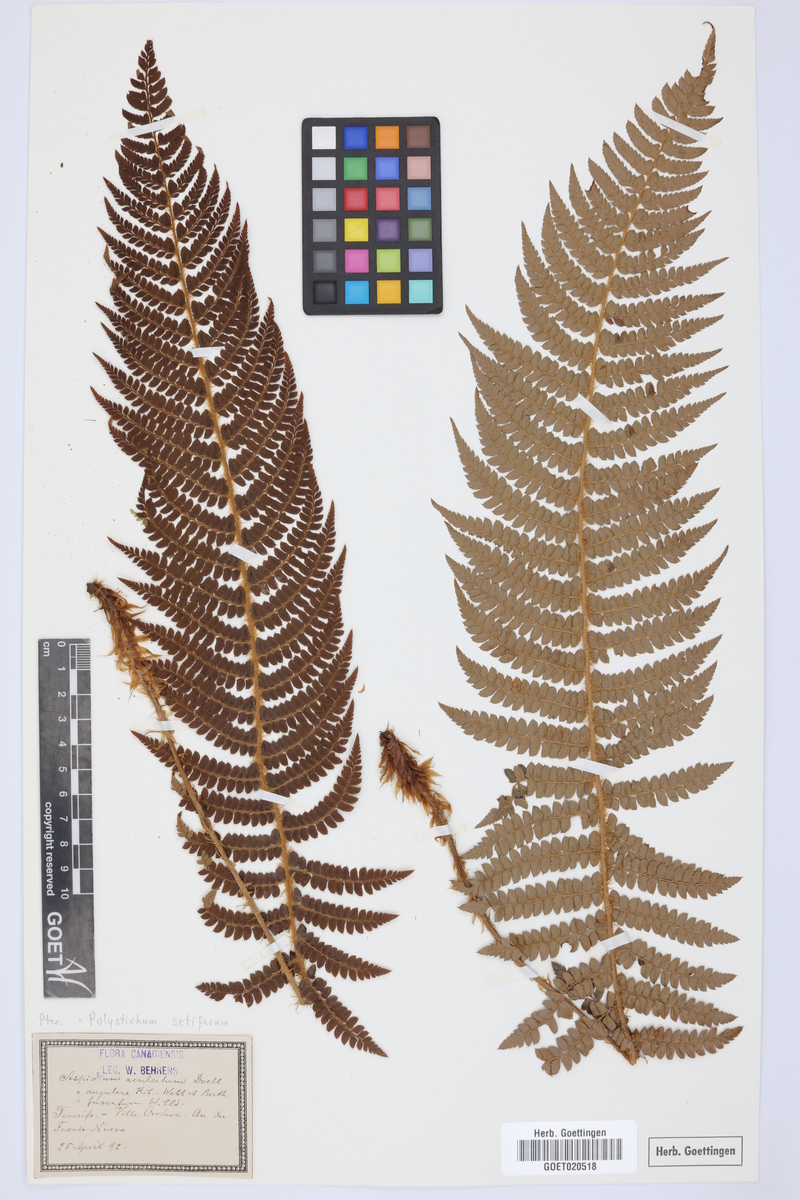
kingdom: Plantae
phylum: Tracheophyta
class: Polypodiopsida
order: Polypodiales
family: Dryopteridaceae
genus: Polystichum
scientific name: Polystichum setiferum
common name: Soft shield-fern
